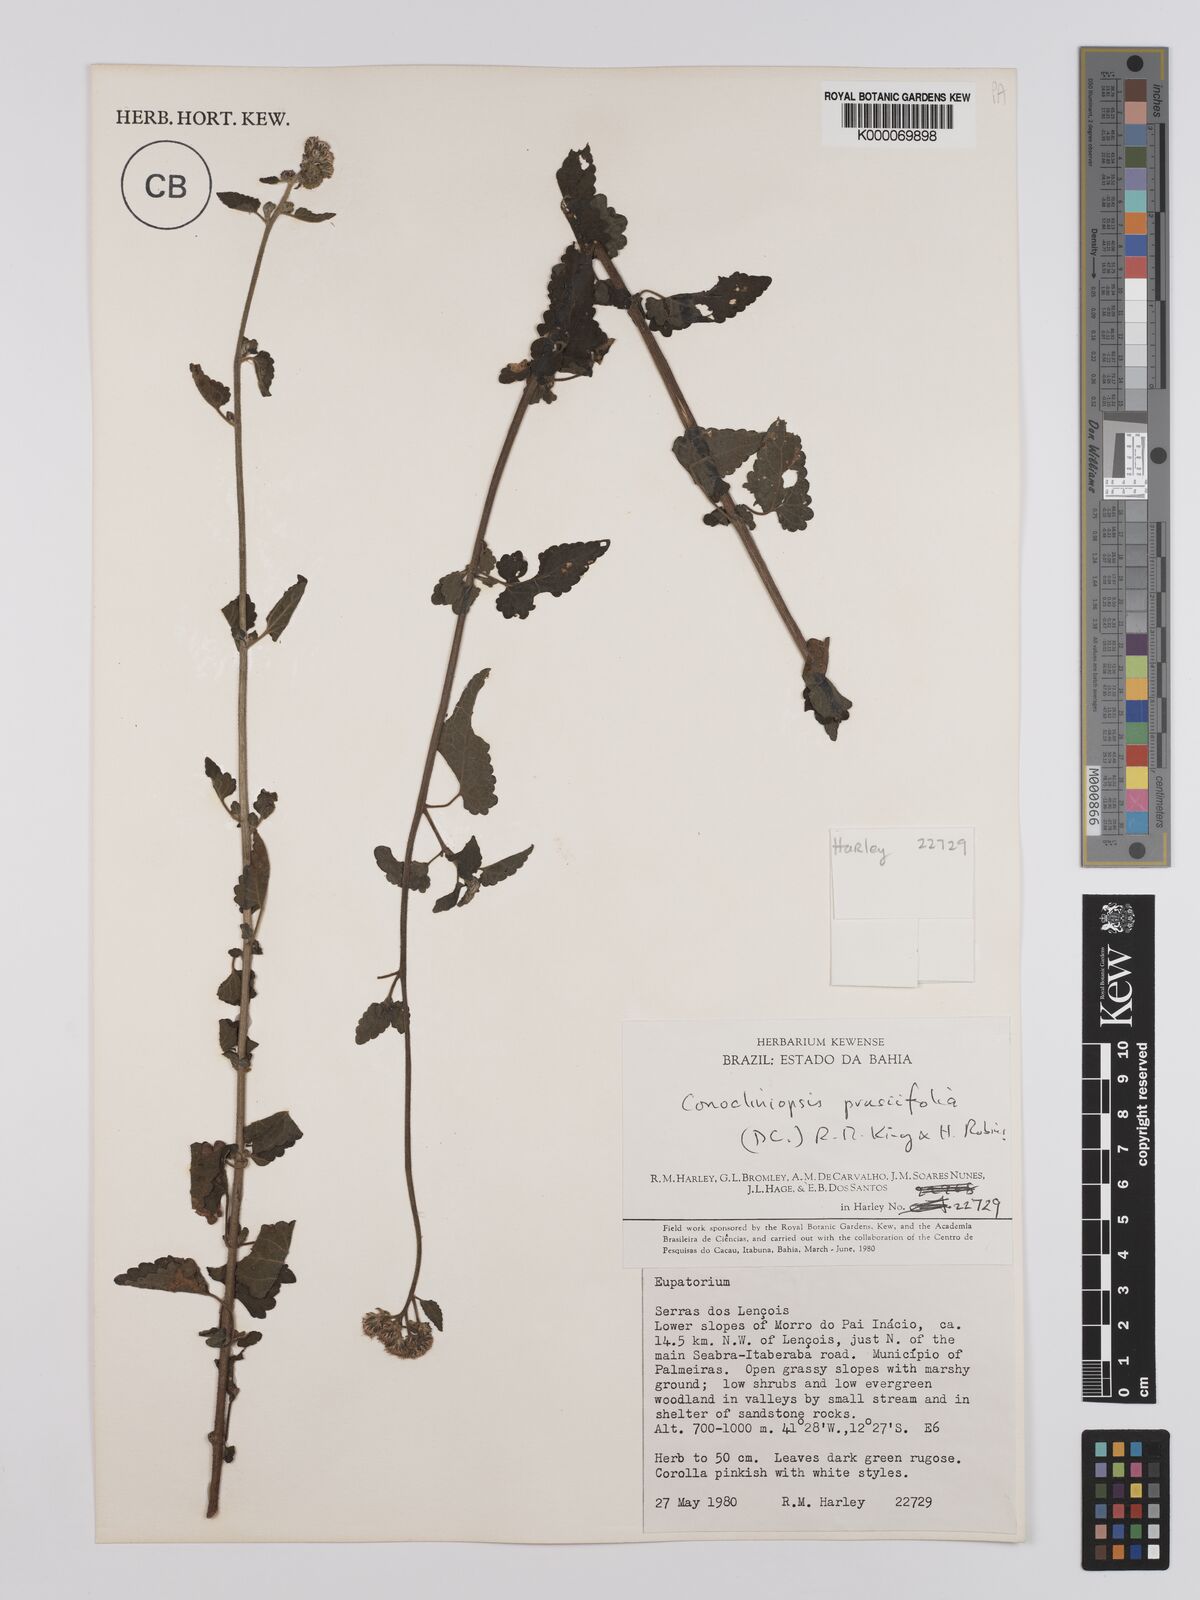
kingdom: Plantae
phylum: Tracheophyta
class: Magnoliopsida
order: Asterales
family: Asteraceae
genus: Conocliniopsis
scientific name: Conocliniopsis grossedentata
